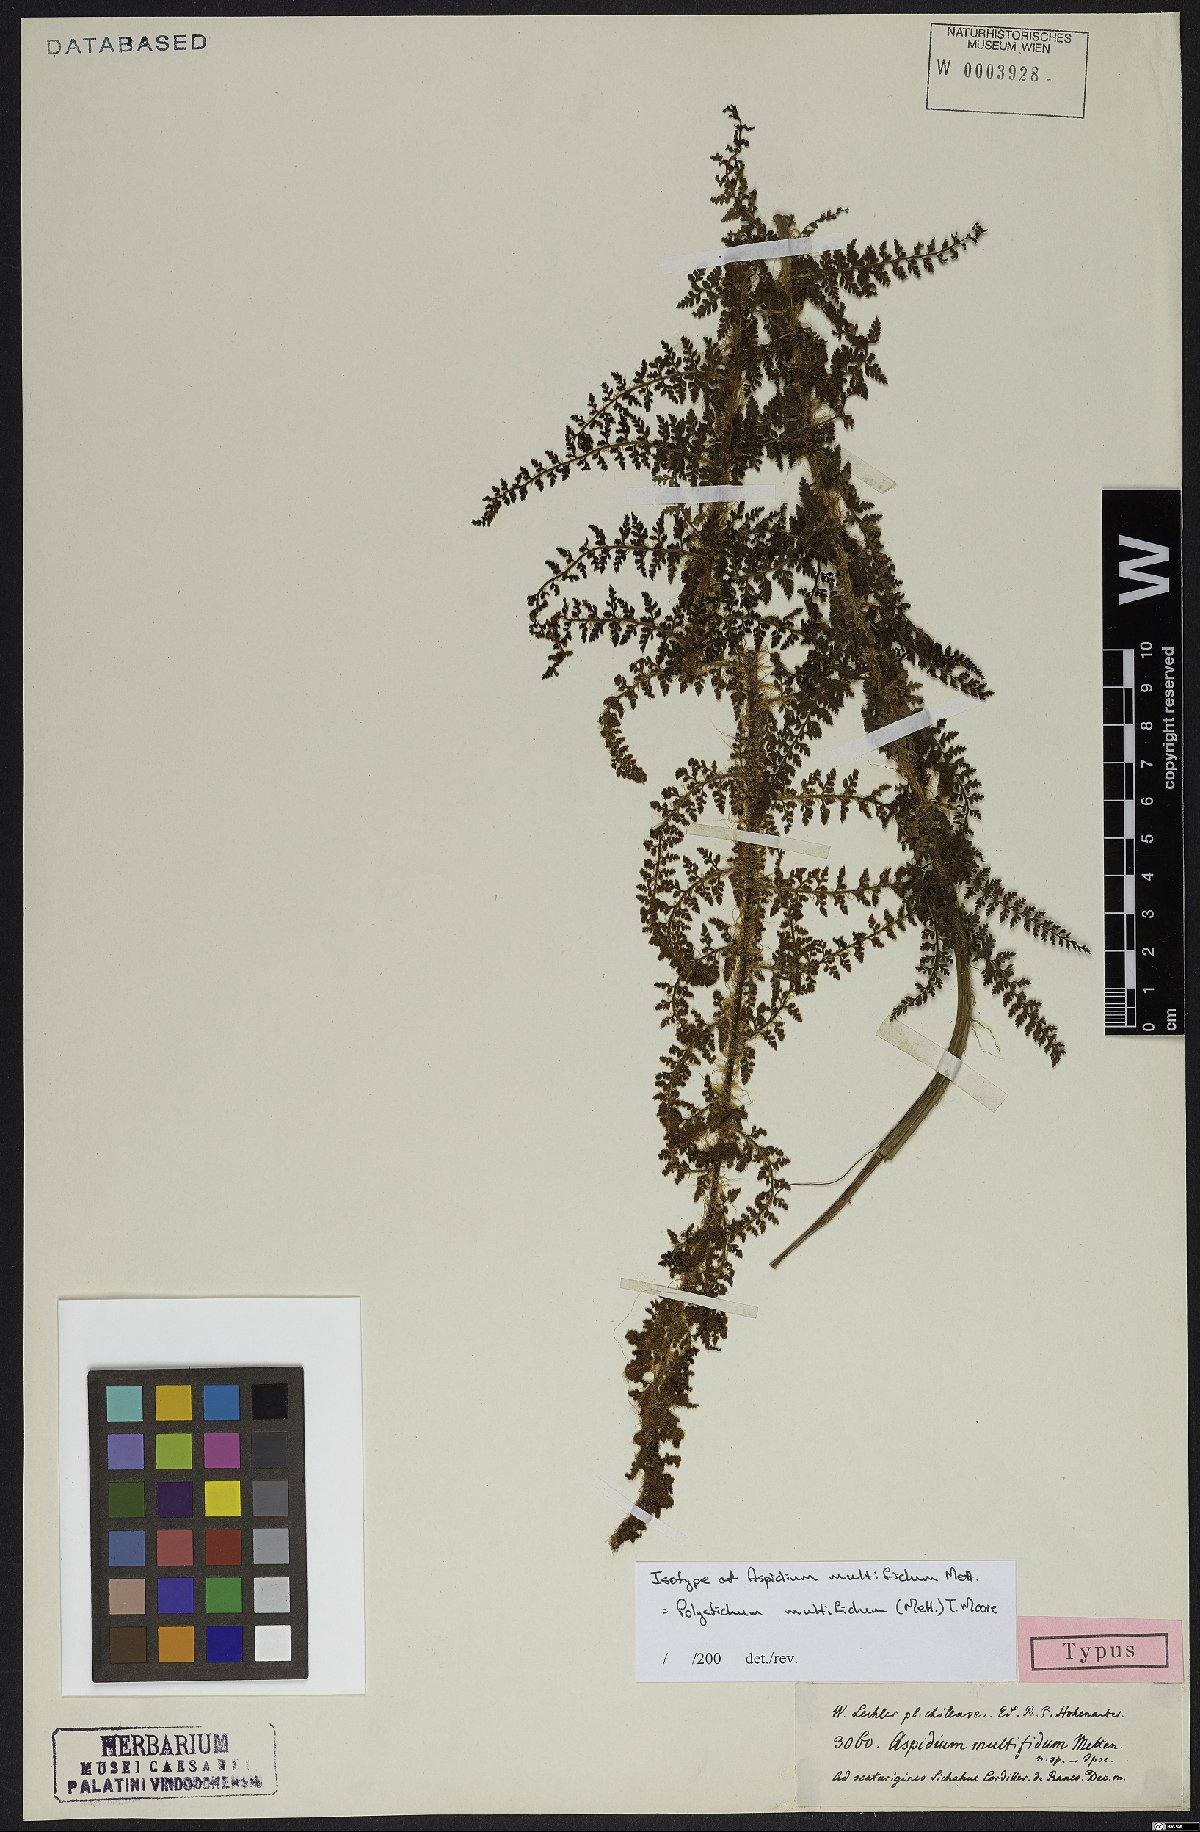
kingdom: Plantae
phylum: Tracheophyta
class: Polypodiopsida
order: Polypodiales
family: Dryopteridaceae
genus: Polystichum
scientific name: Polystichum multifidum
